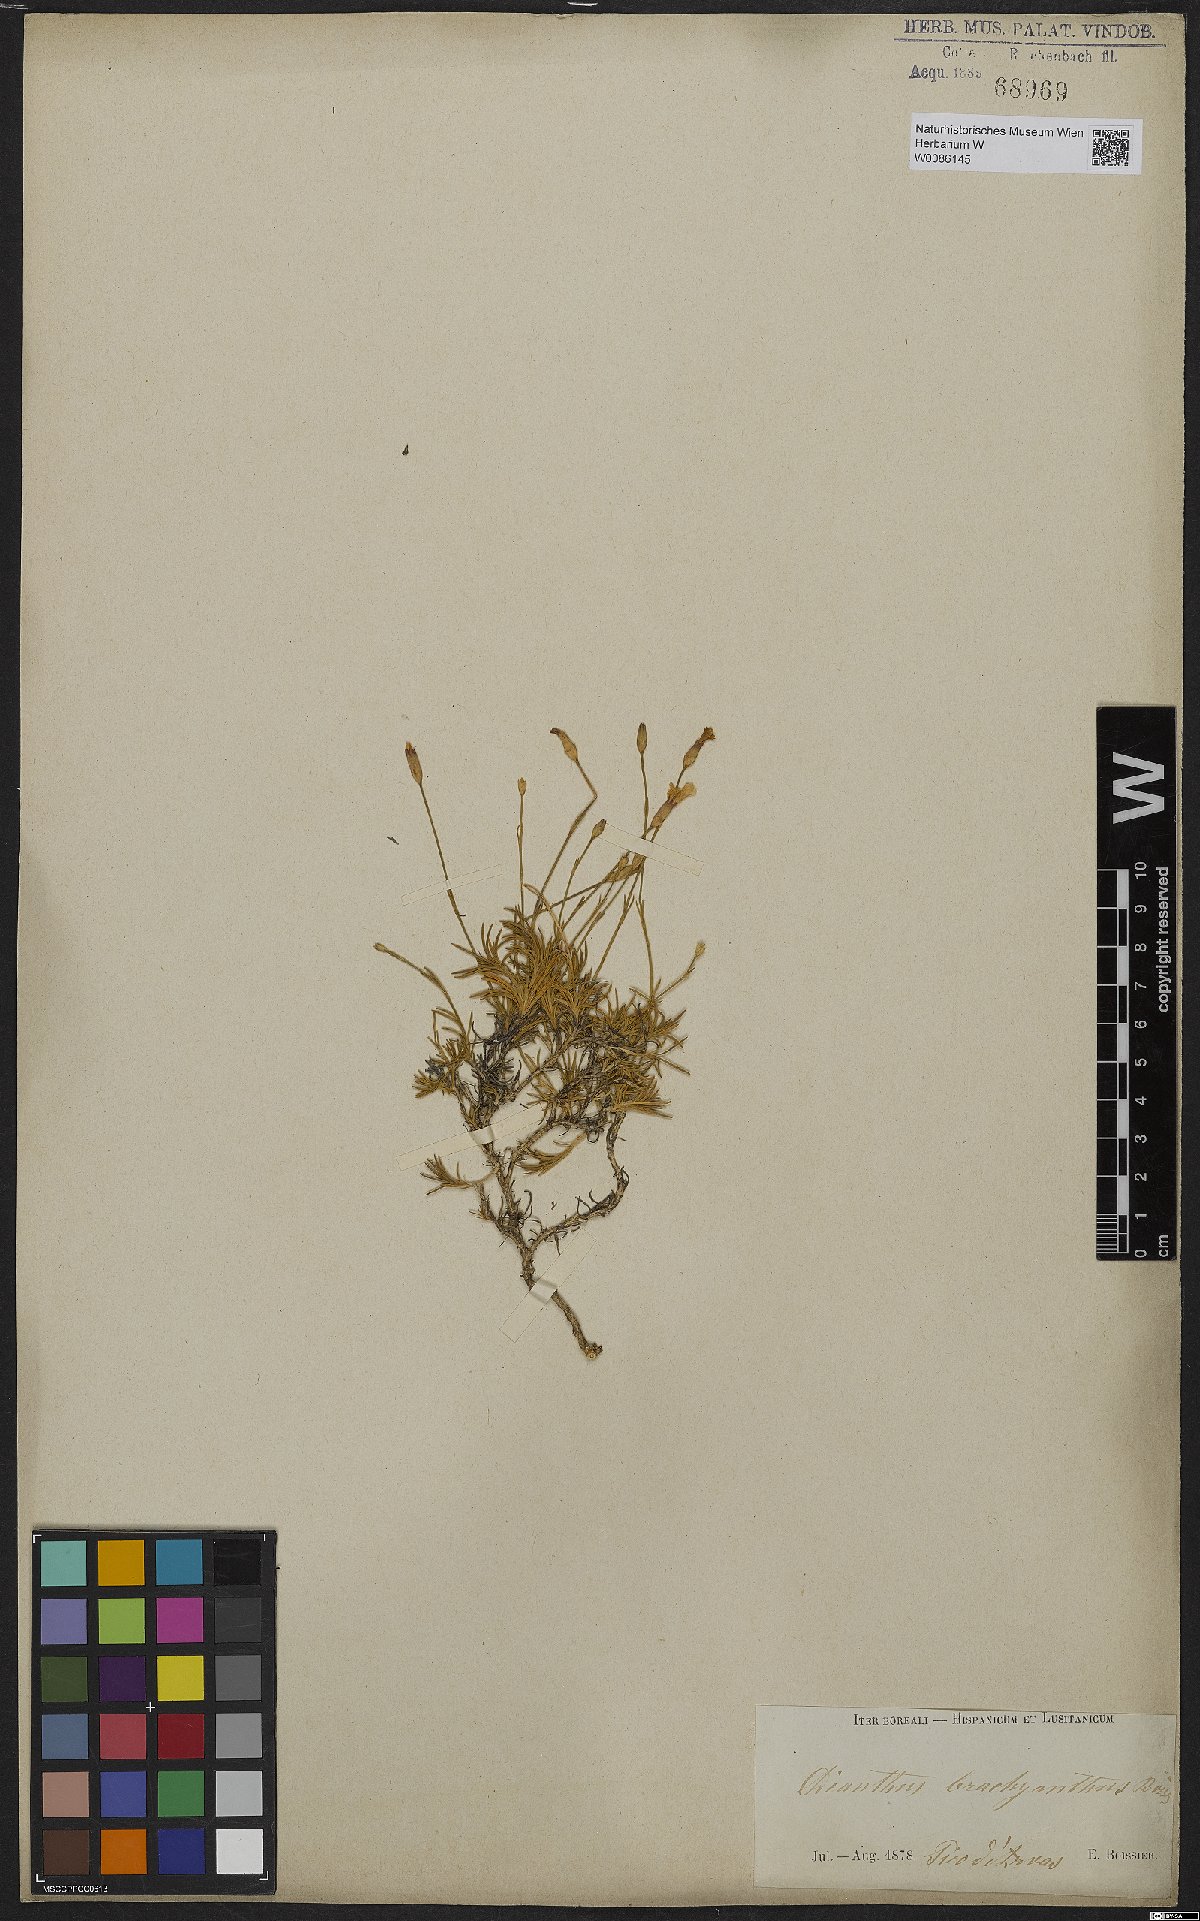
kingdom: Plantae
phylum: Tracheophyta
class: Magnoliopsida
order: Caryophyllales
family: Caryophyllaceae
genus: Dianthus
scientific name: Dianthus pungens
